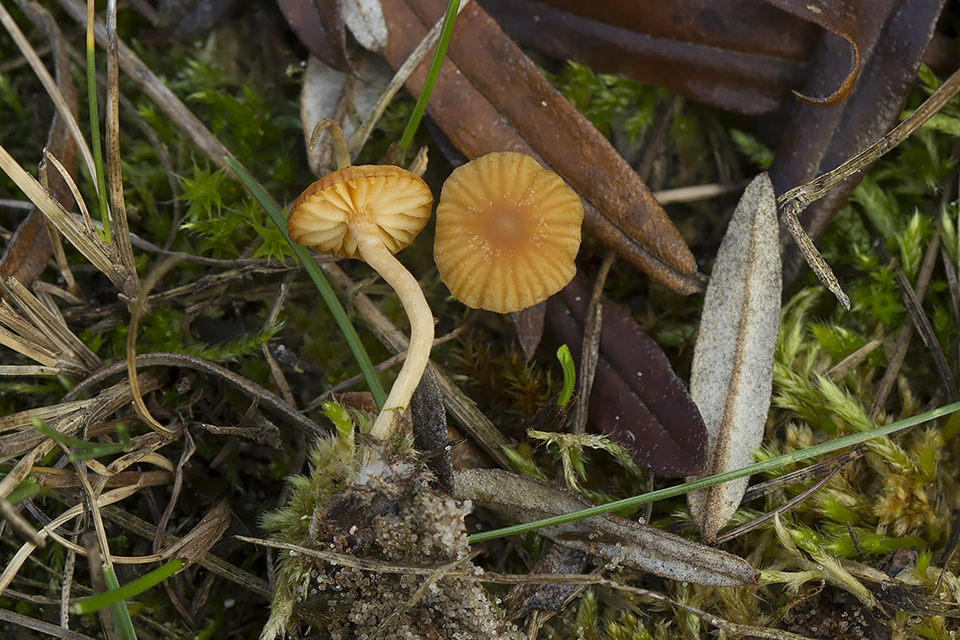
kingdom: Fungi
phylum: Basidiomycota
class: Agaricomycetes
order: Agaricales
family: Hymenogastraceae
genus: Galerina
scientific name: Galerina graminea
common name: plæne-hjelmhat
